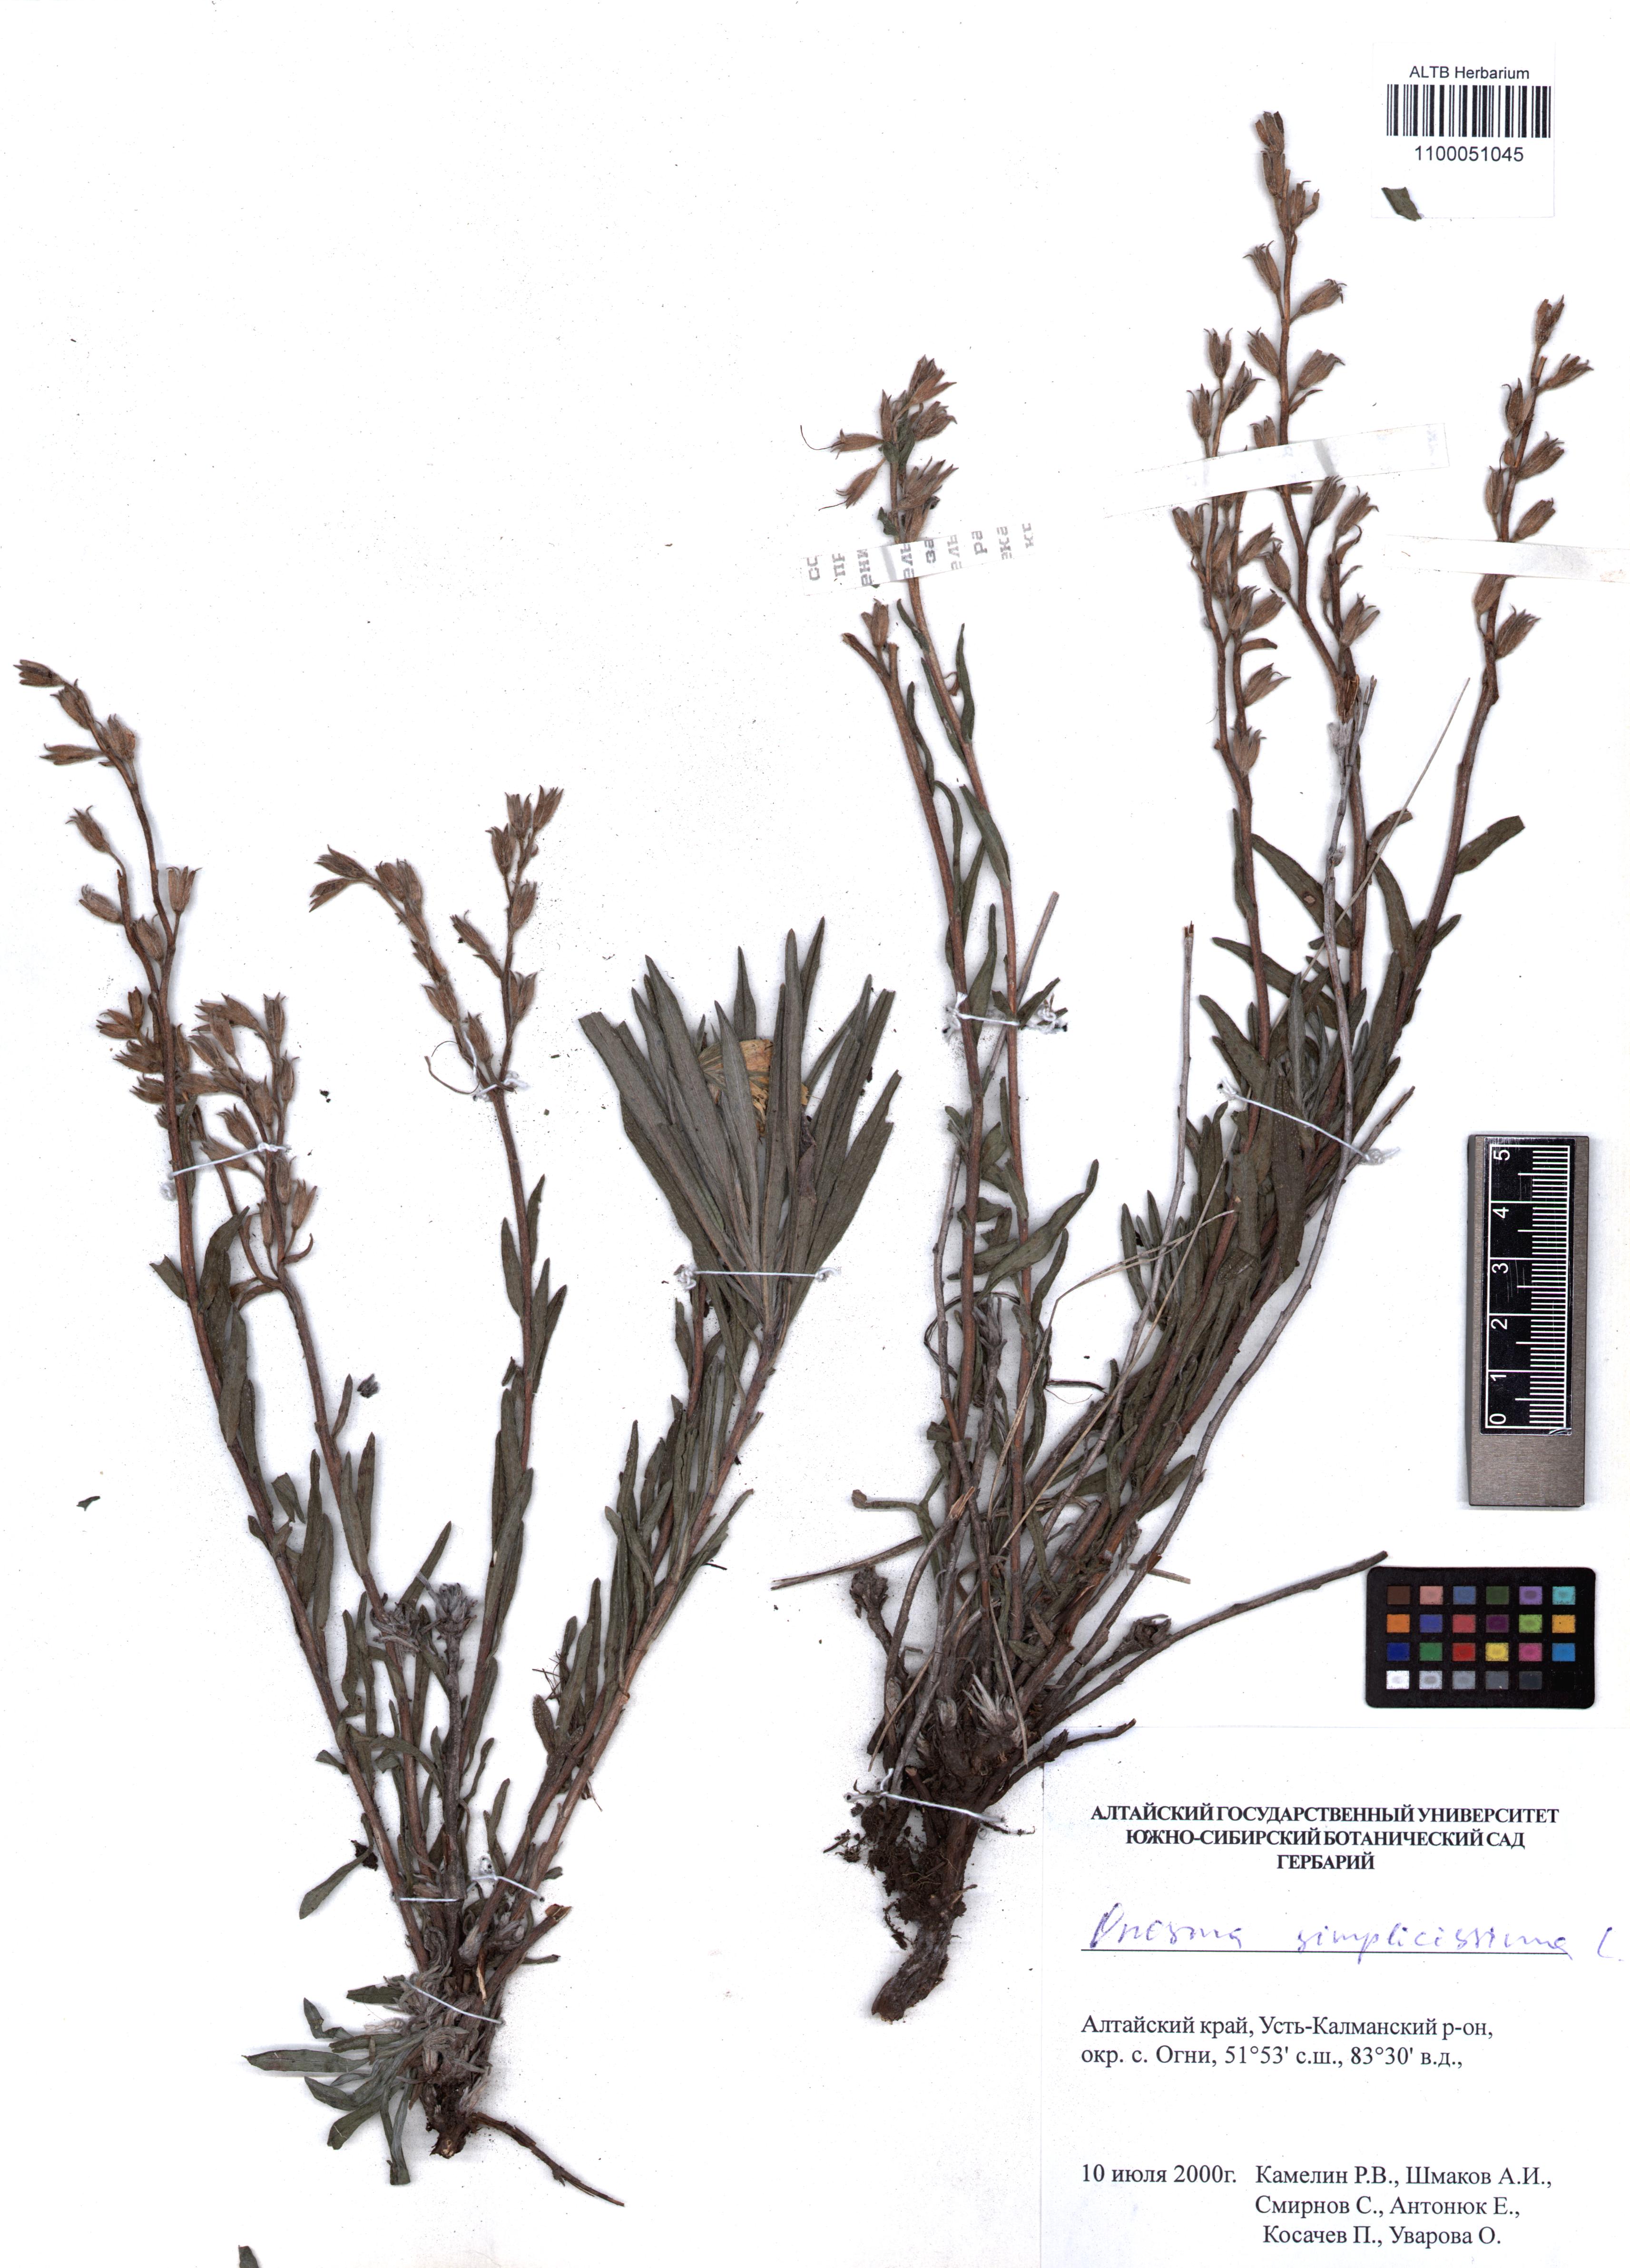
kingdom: Plantae
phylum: Tracheophyta
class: Magnoliopsida
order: Boraginales
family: Boraginaceae
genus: Onosma
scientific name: Onosma simplicissima
